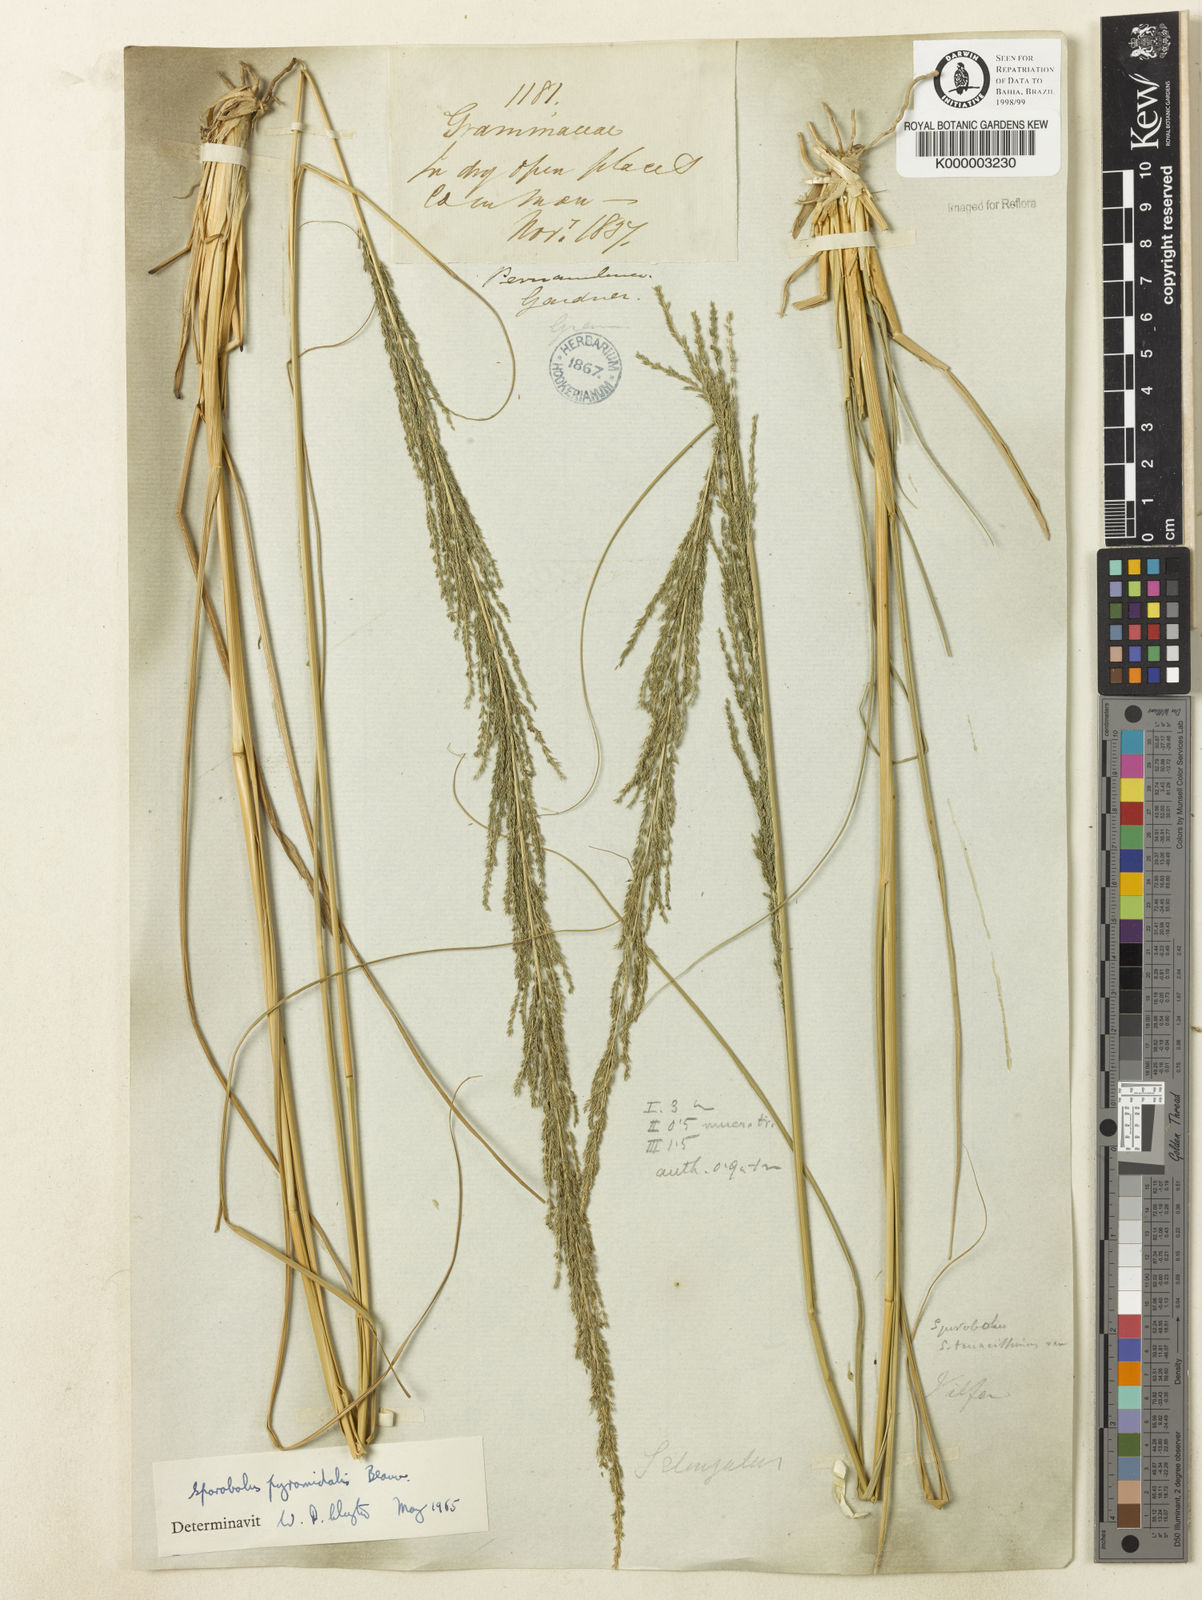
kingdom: Plantae
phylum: Tracheophyta
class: Liliopsida
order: Poales
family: Poaceae
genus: Sporobolus
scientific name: Sporobolus pyramidalis
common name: West indian dropseed
